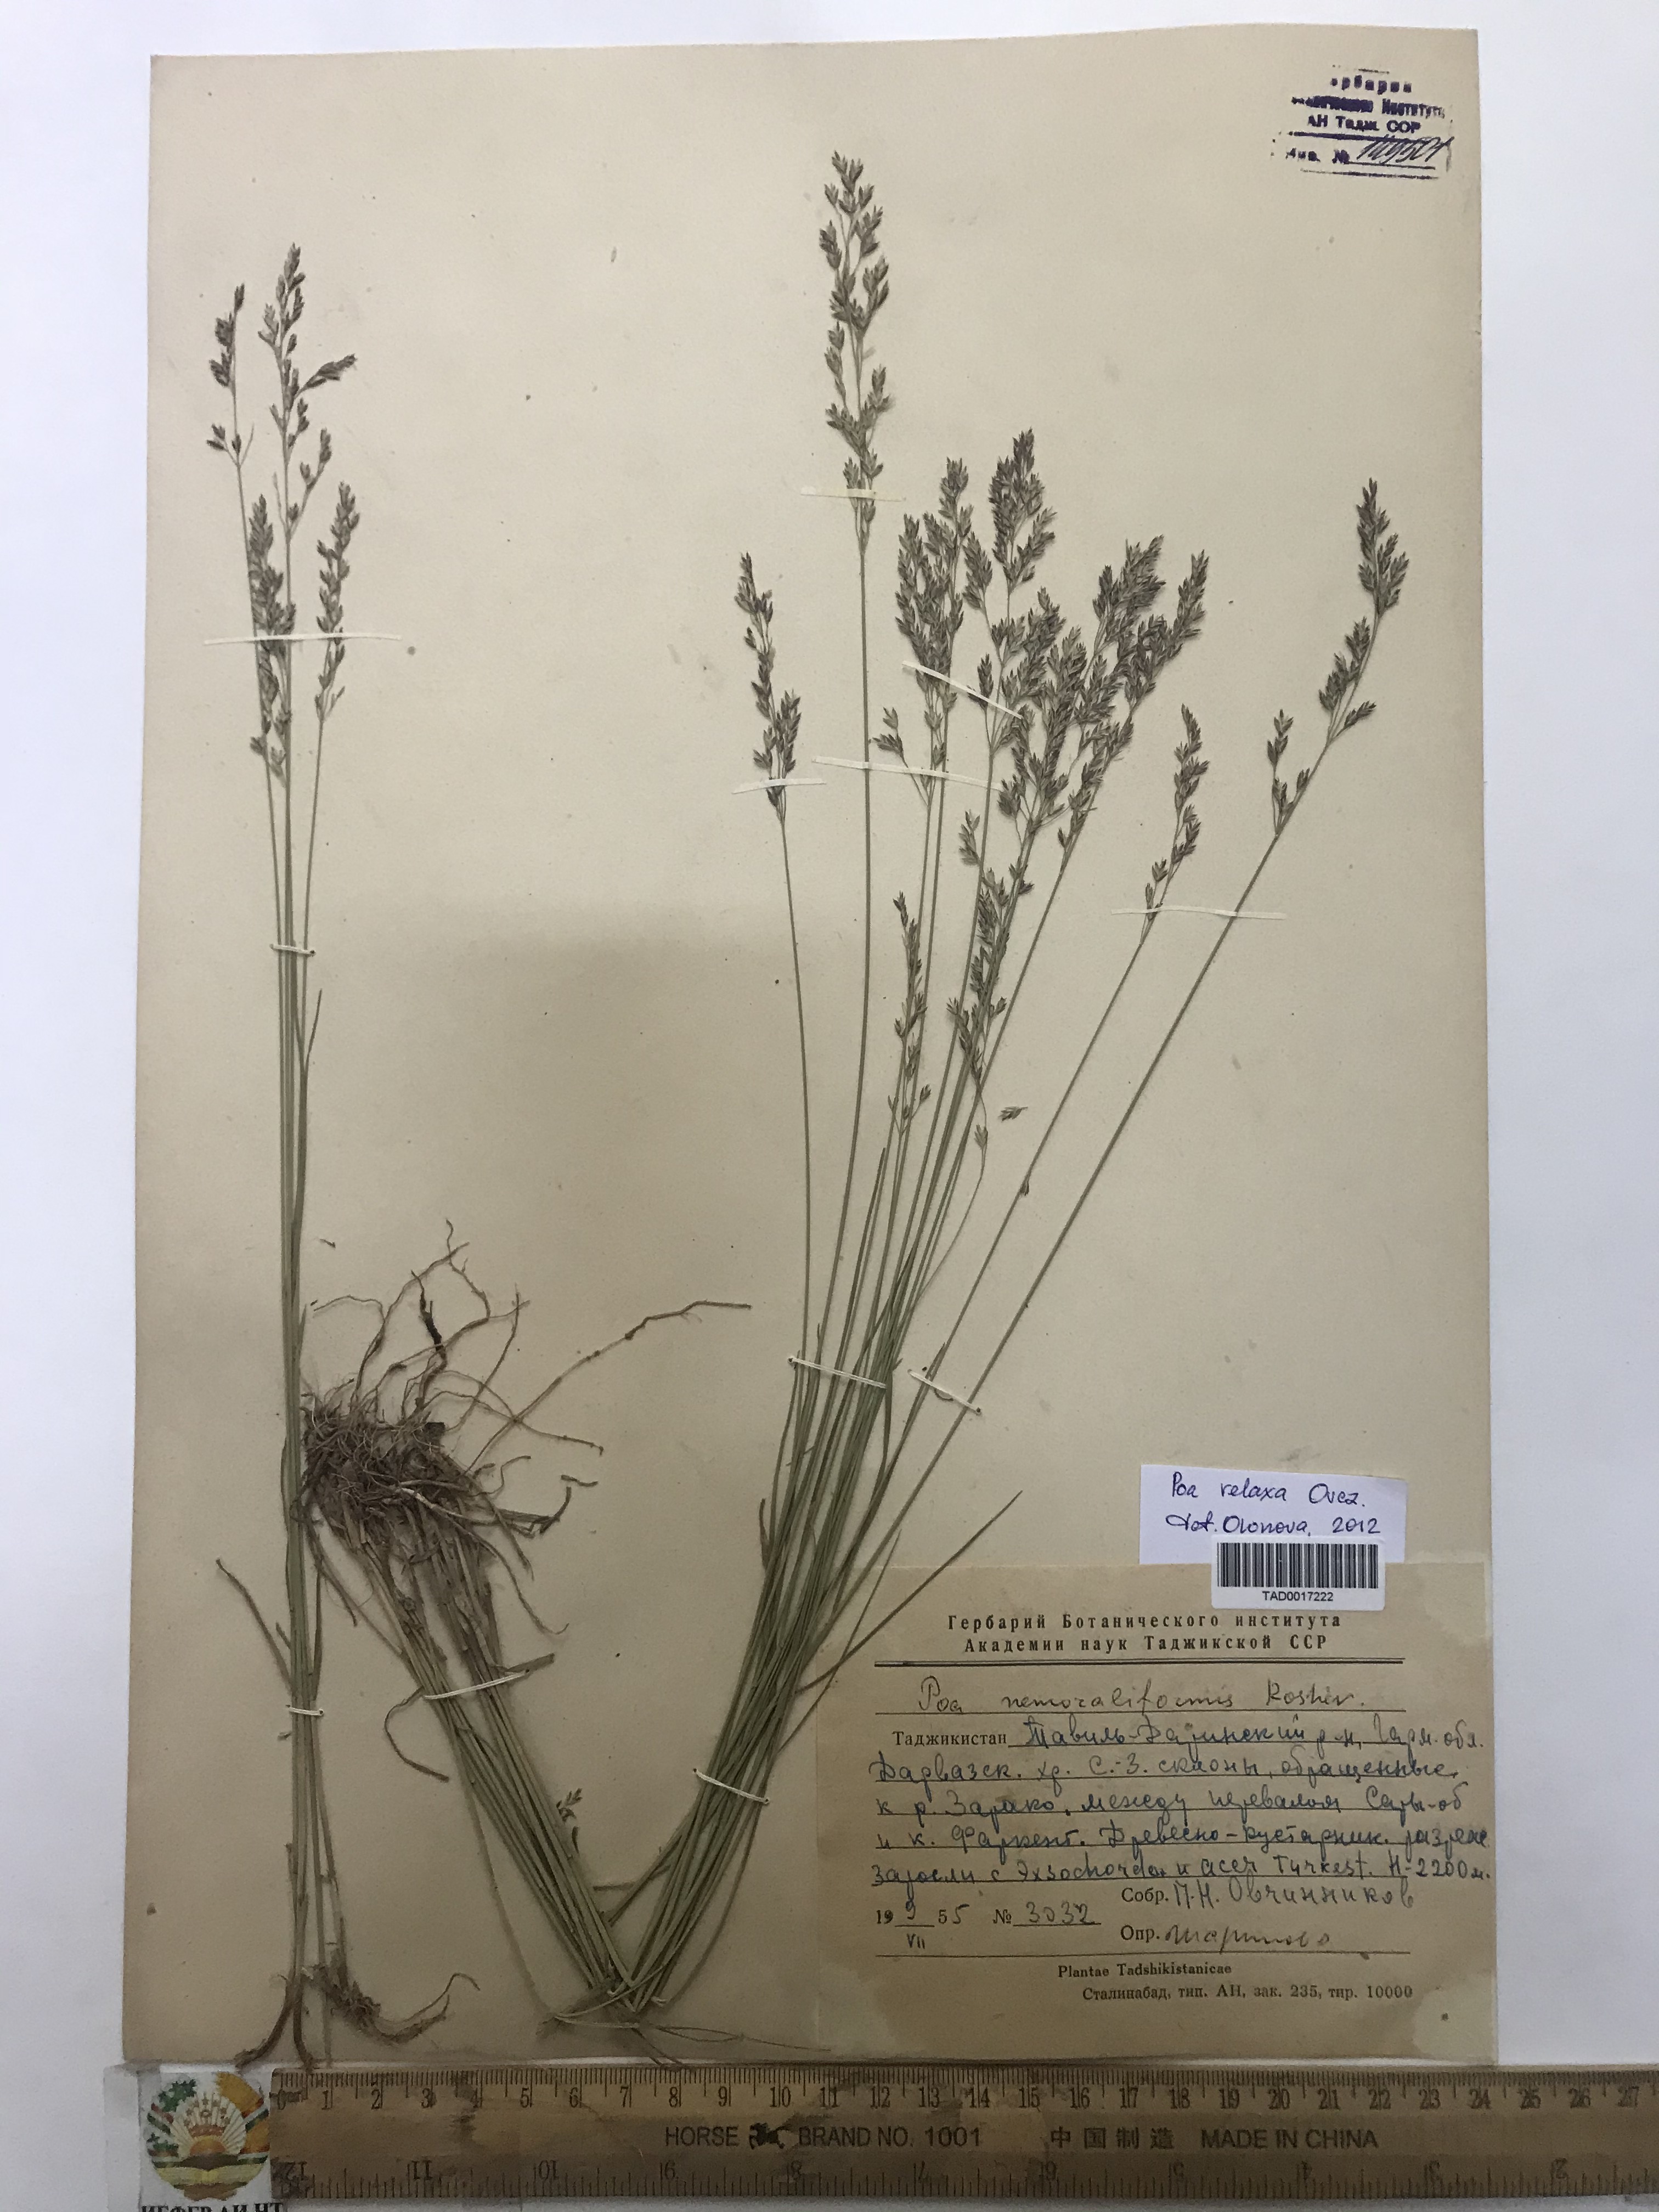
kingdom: Plantae
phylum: Tracheophyta
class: Liliopsida
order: Poales
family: Poaceae
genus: Poa
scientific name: Poa versicolor
